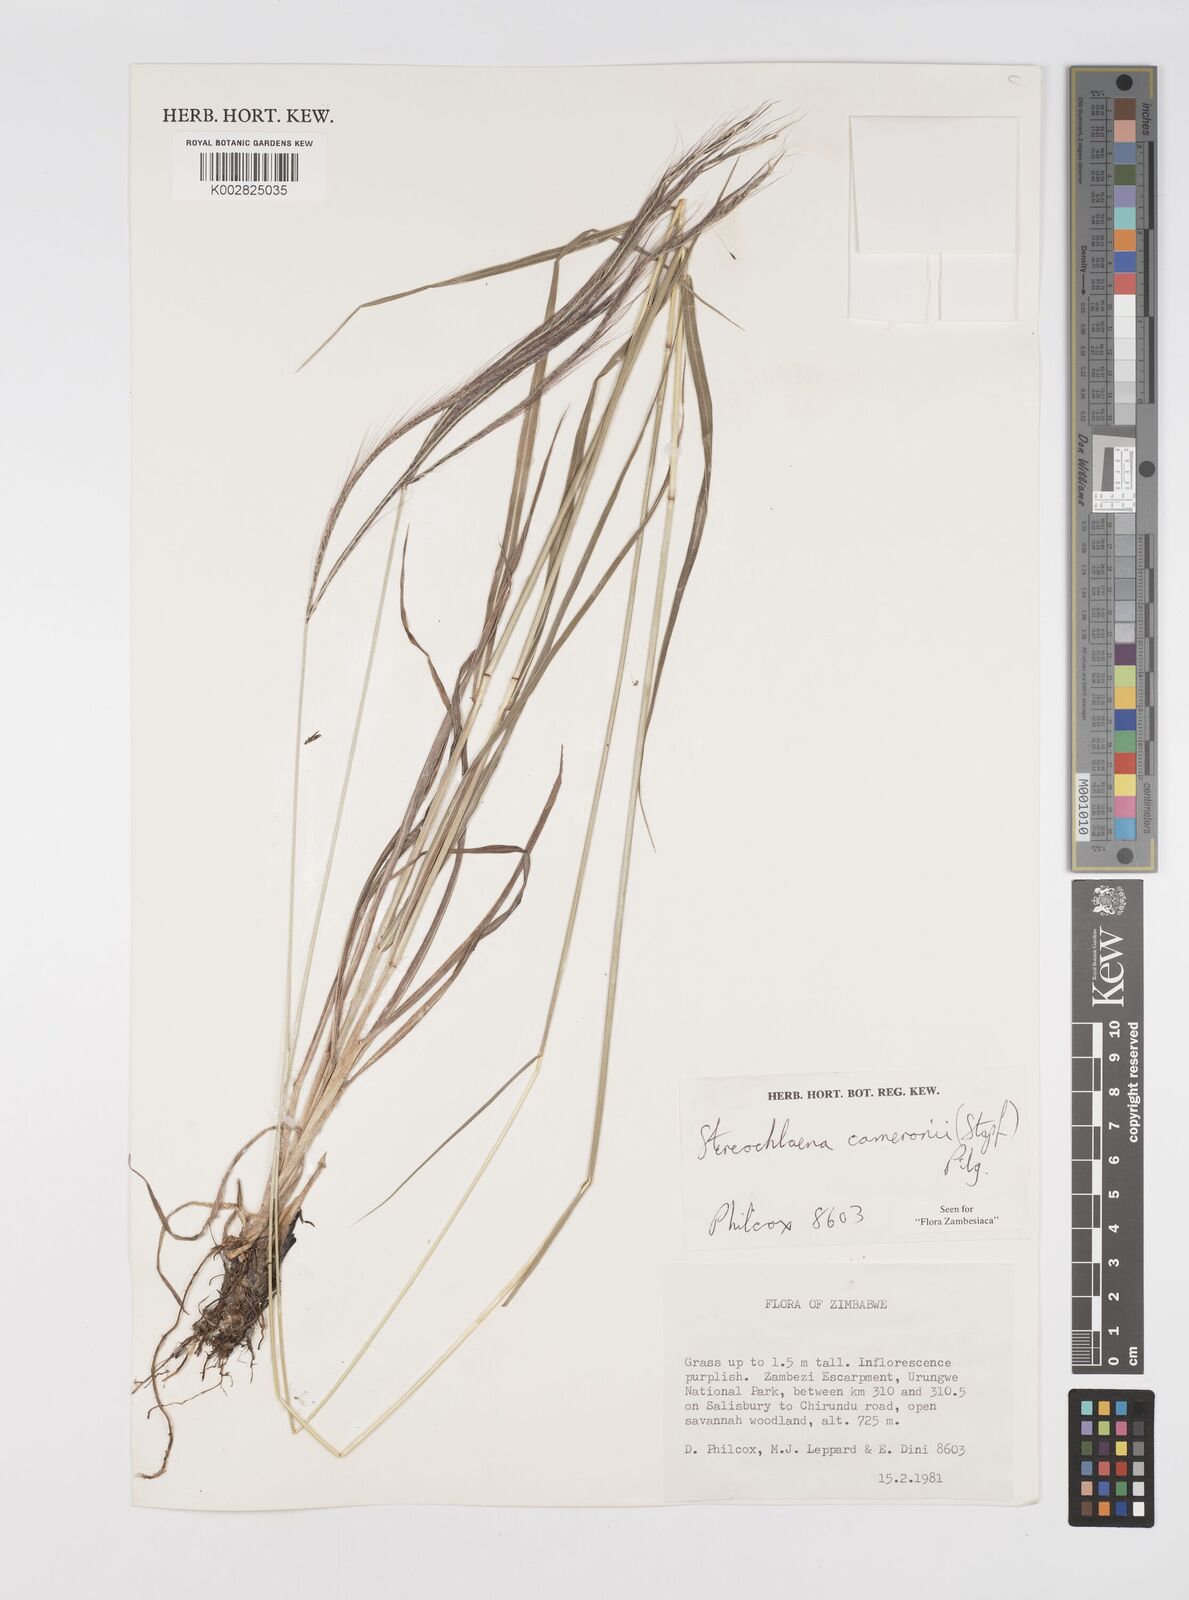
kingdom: Plantae
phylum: Tracheophyta
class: Liliopsida
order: Poales
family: Poaceae
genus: Stereochlaena
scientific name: Stereochlaena cameronii
